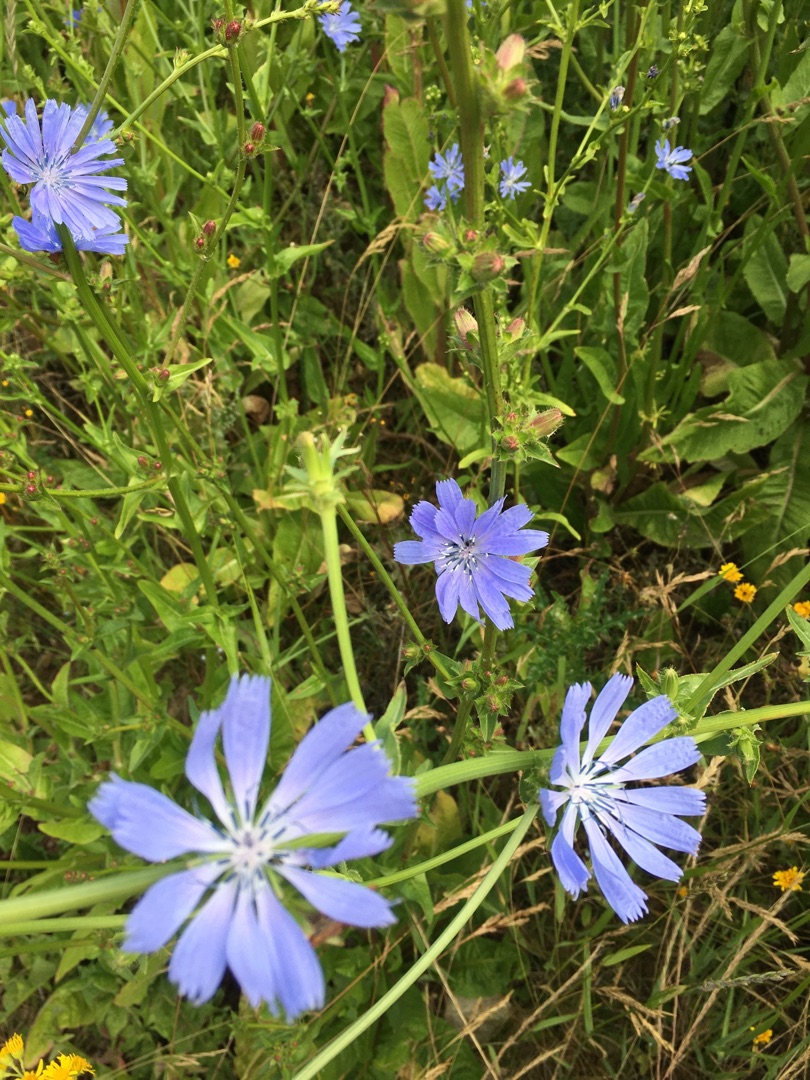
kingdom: Plantae
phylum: Tracheophyta
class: Magnoliopsida
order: Asterales
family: Asteraceae
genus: Cichorium
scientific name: Cichorium intybus
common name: Cikorie
